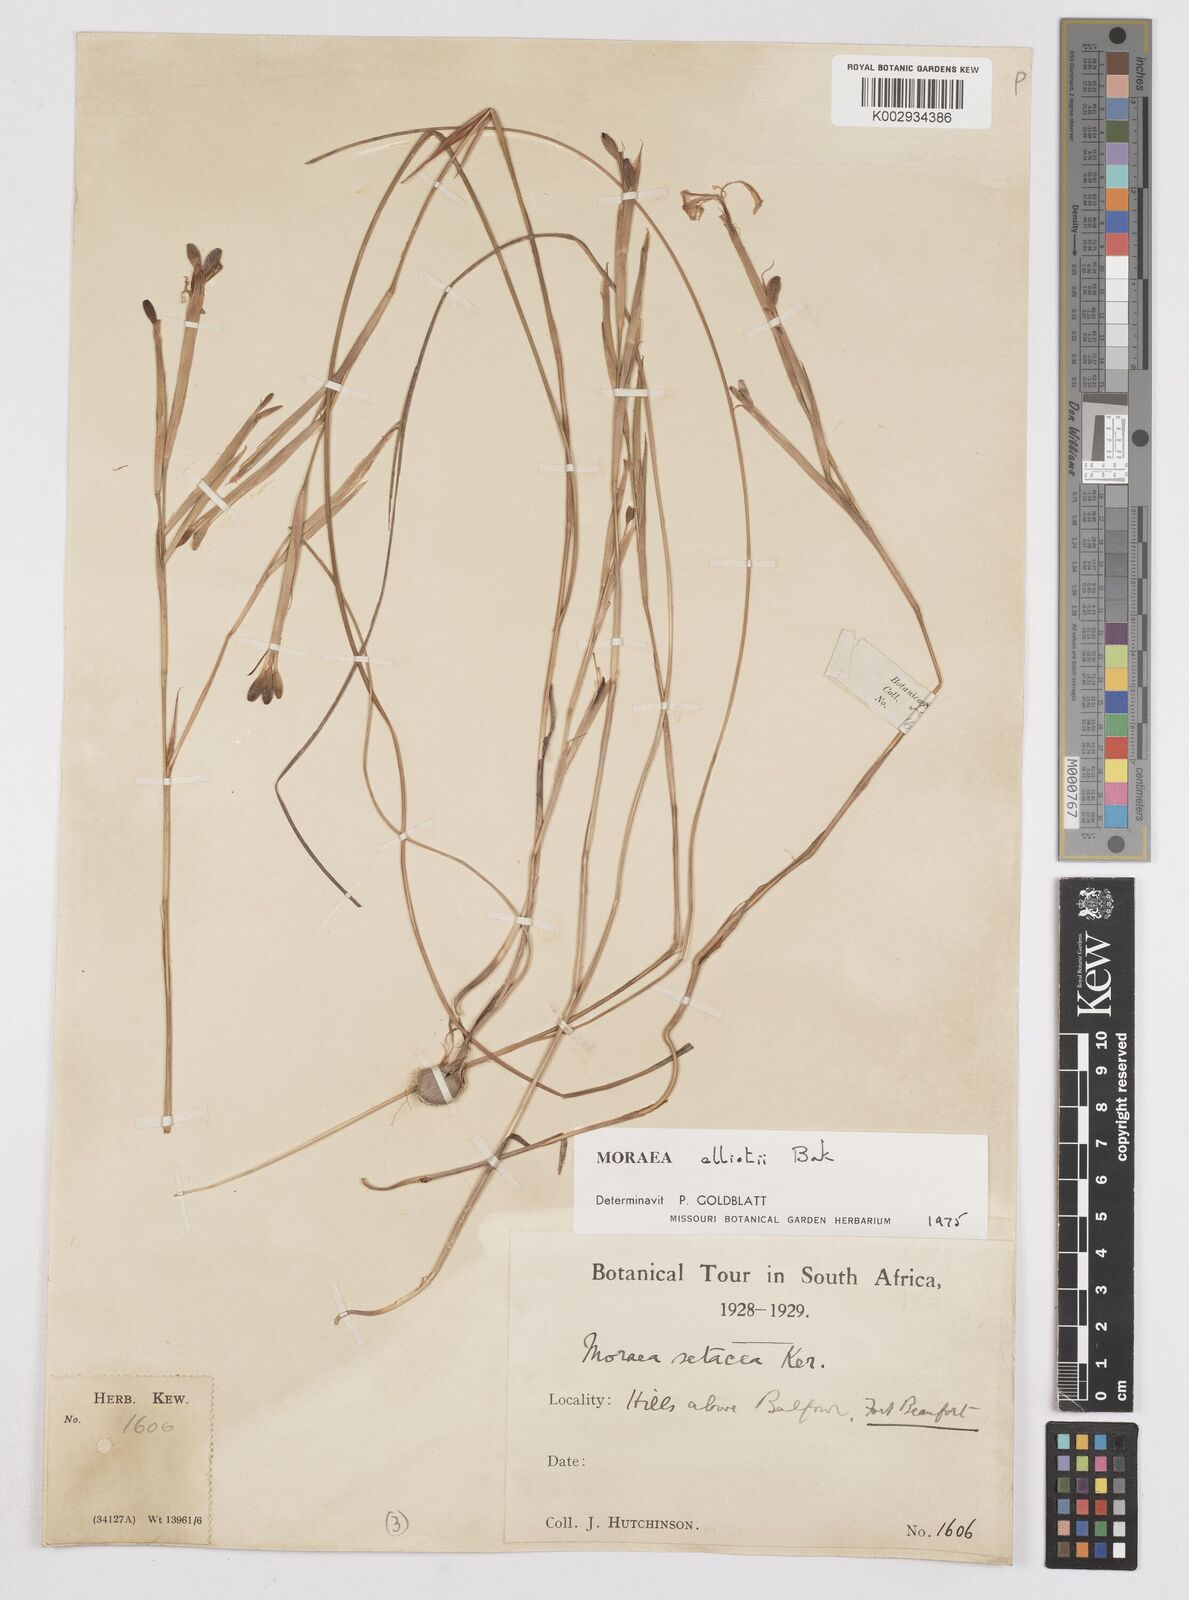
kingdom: Plantae
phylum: Tracheophyta
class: Liliopsida
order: Asparagales
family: Iridaceae
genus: Moraea
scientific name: Moraea elliotii
